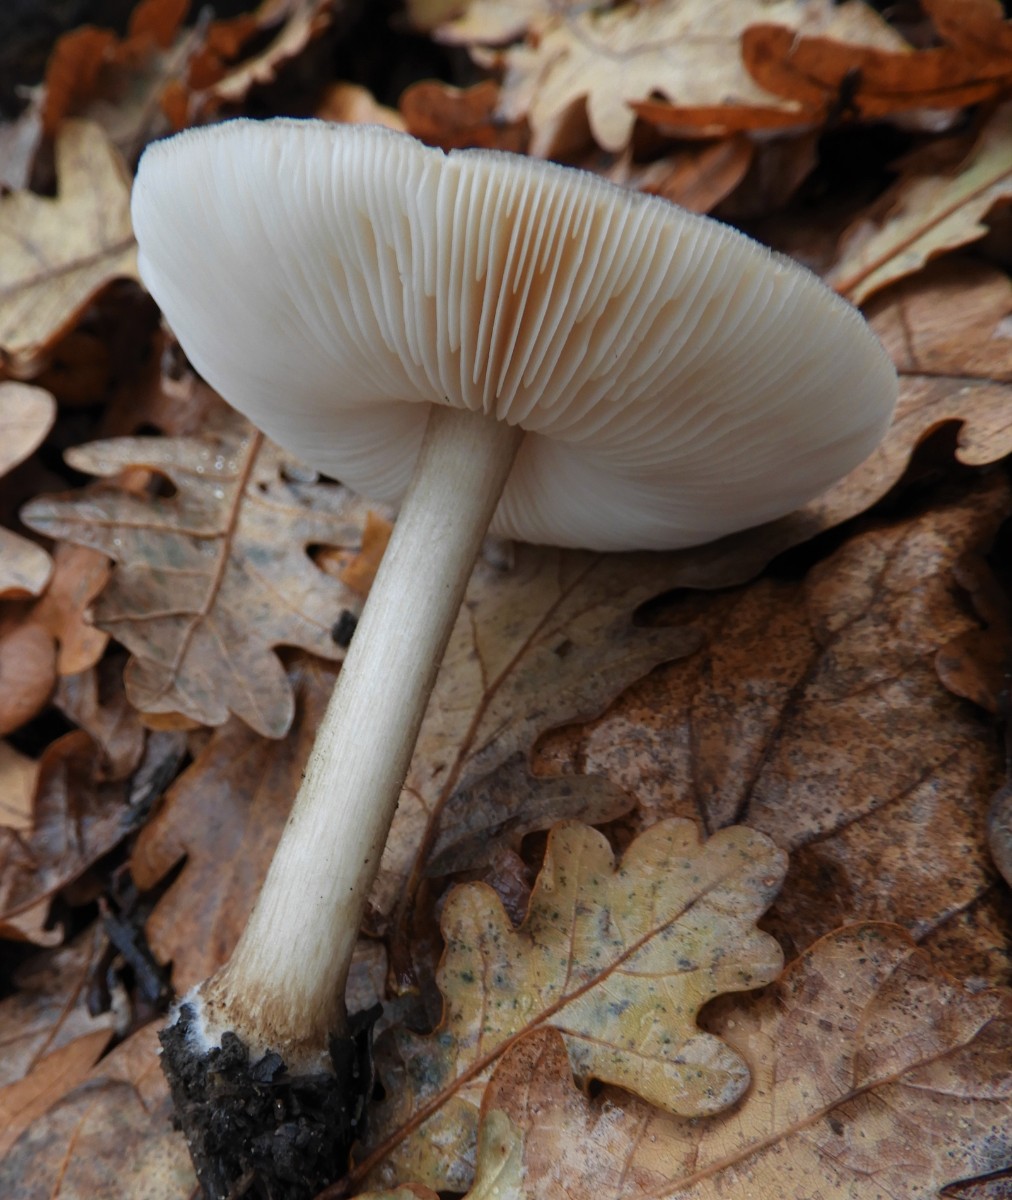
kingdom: Fungi
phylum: Basidiomycota
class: Agaricomycetes
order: Agaricales
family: Pluteaceae
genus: Pluteus
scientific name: Pluteus cervinus
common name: sodfarvet skærmhat
